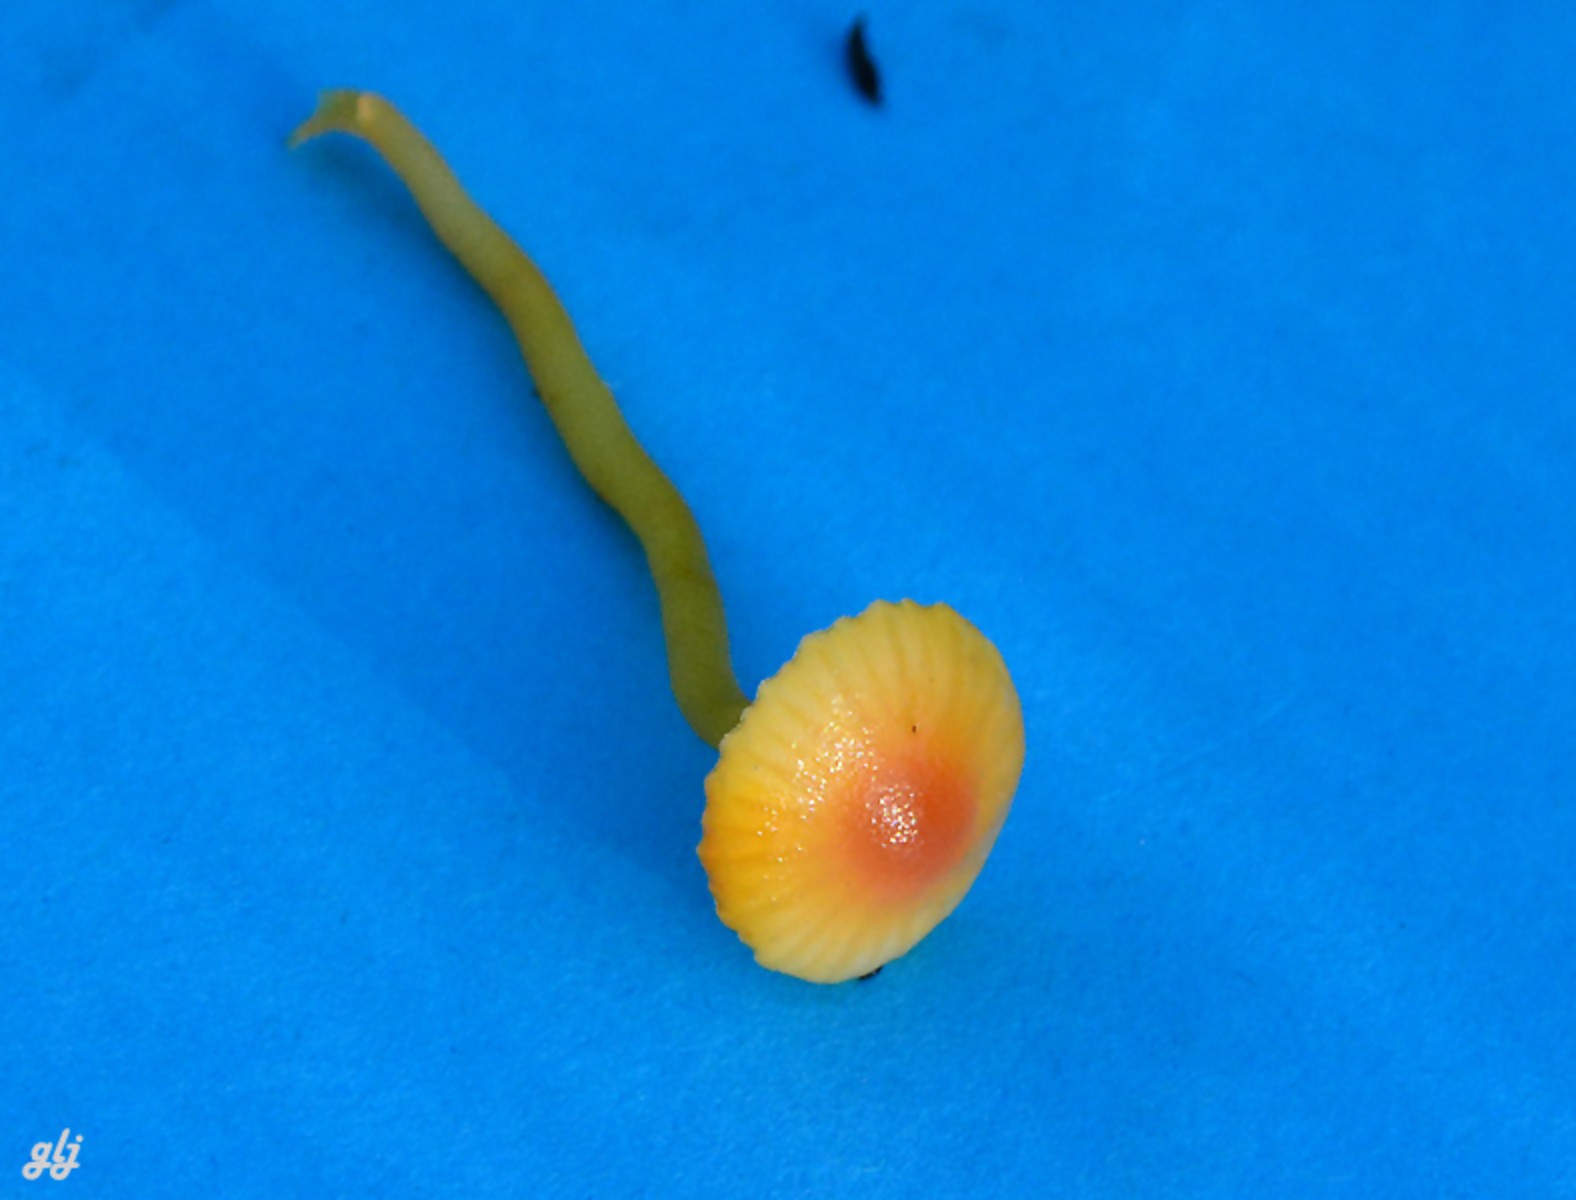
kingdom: Fungi
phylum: Basidiomycota
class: Agaricomycetes
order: Agaricales
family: Hygrophoraceae
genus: Hygrocybe
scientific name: Hygrocybe insipida
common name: liden vokshat
